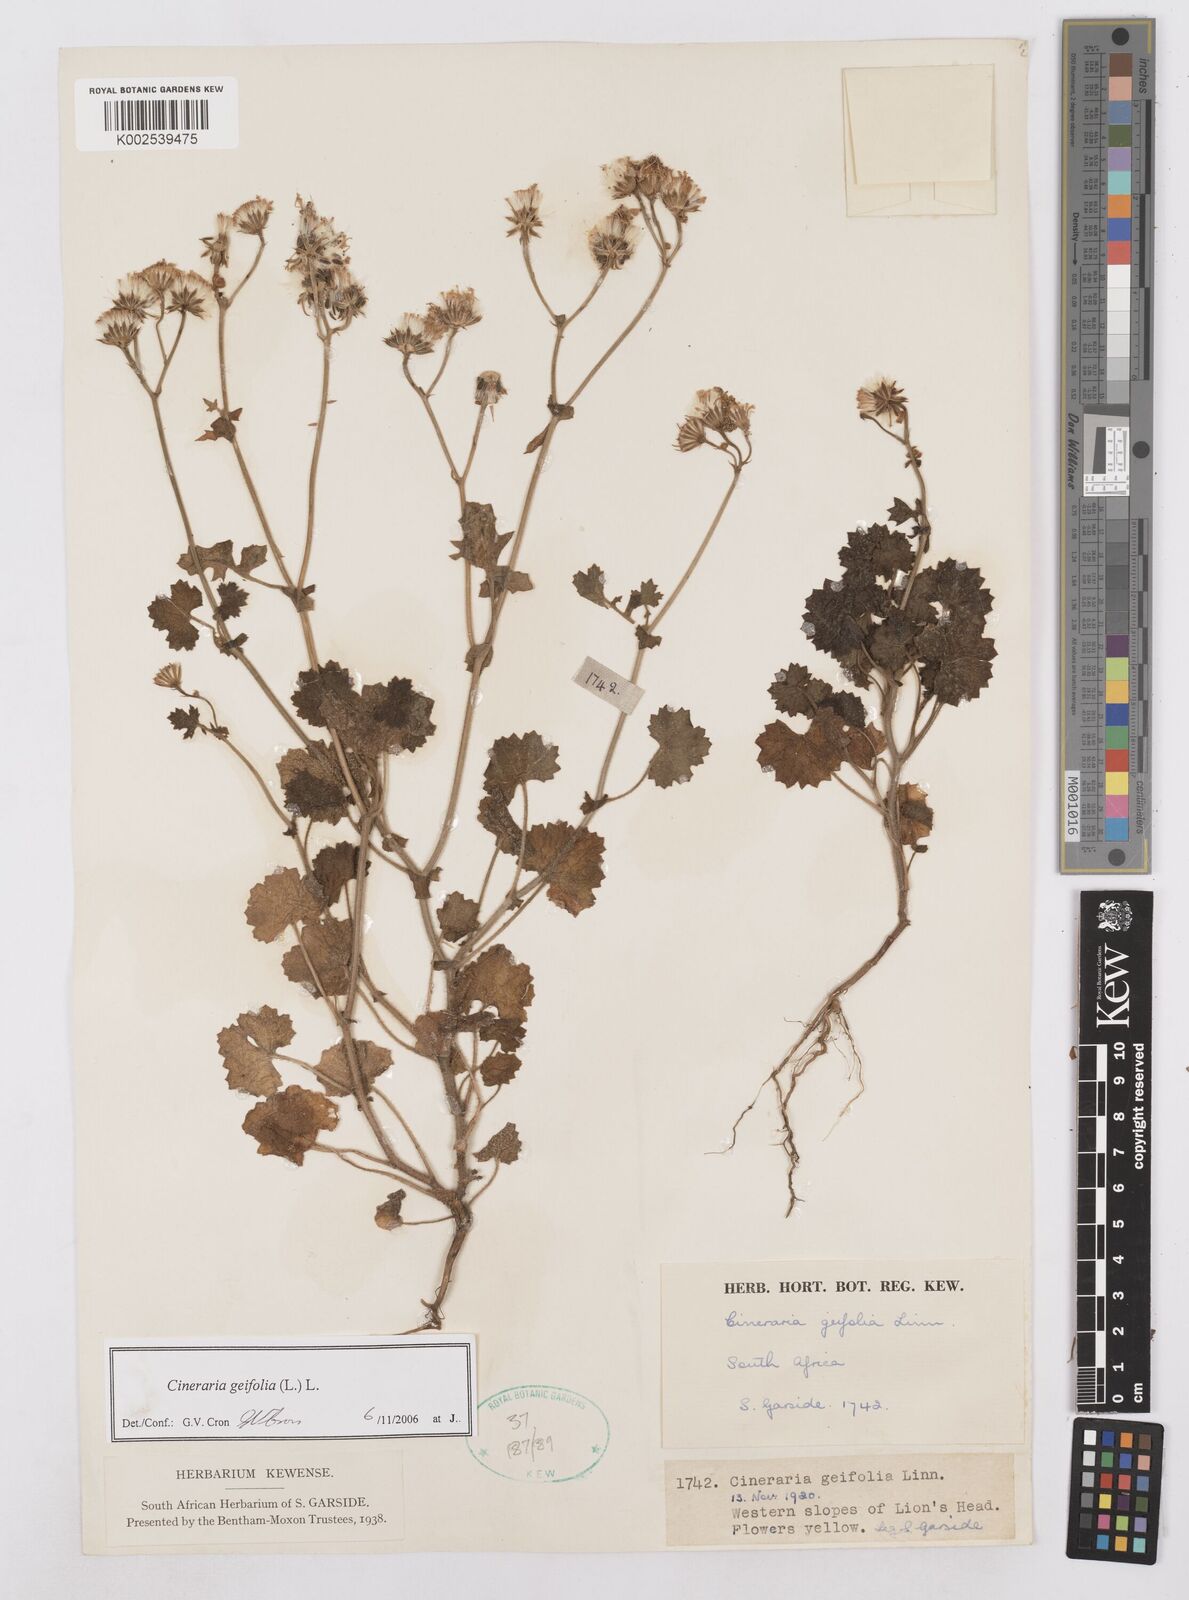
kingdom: Plantae
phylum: Tracheophyta
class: Magnoliopsida
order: Asterales
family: Asteraceae
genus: Cineraria
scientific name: Cineraria geifolia
